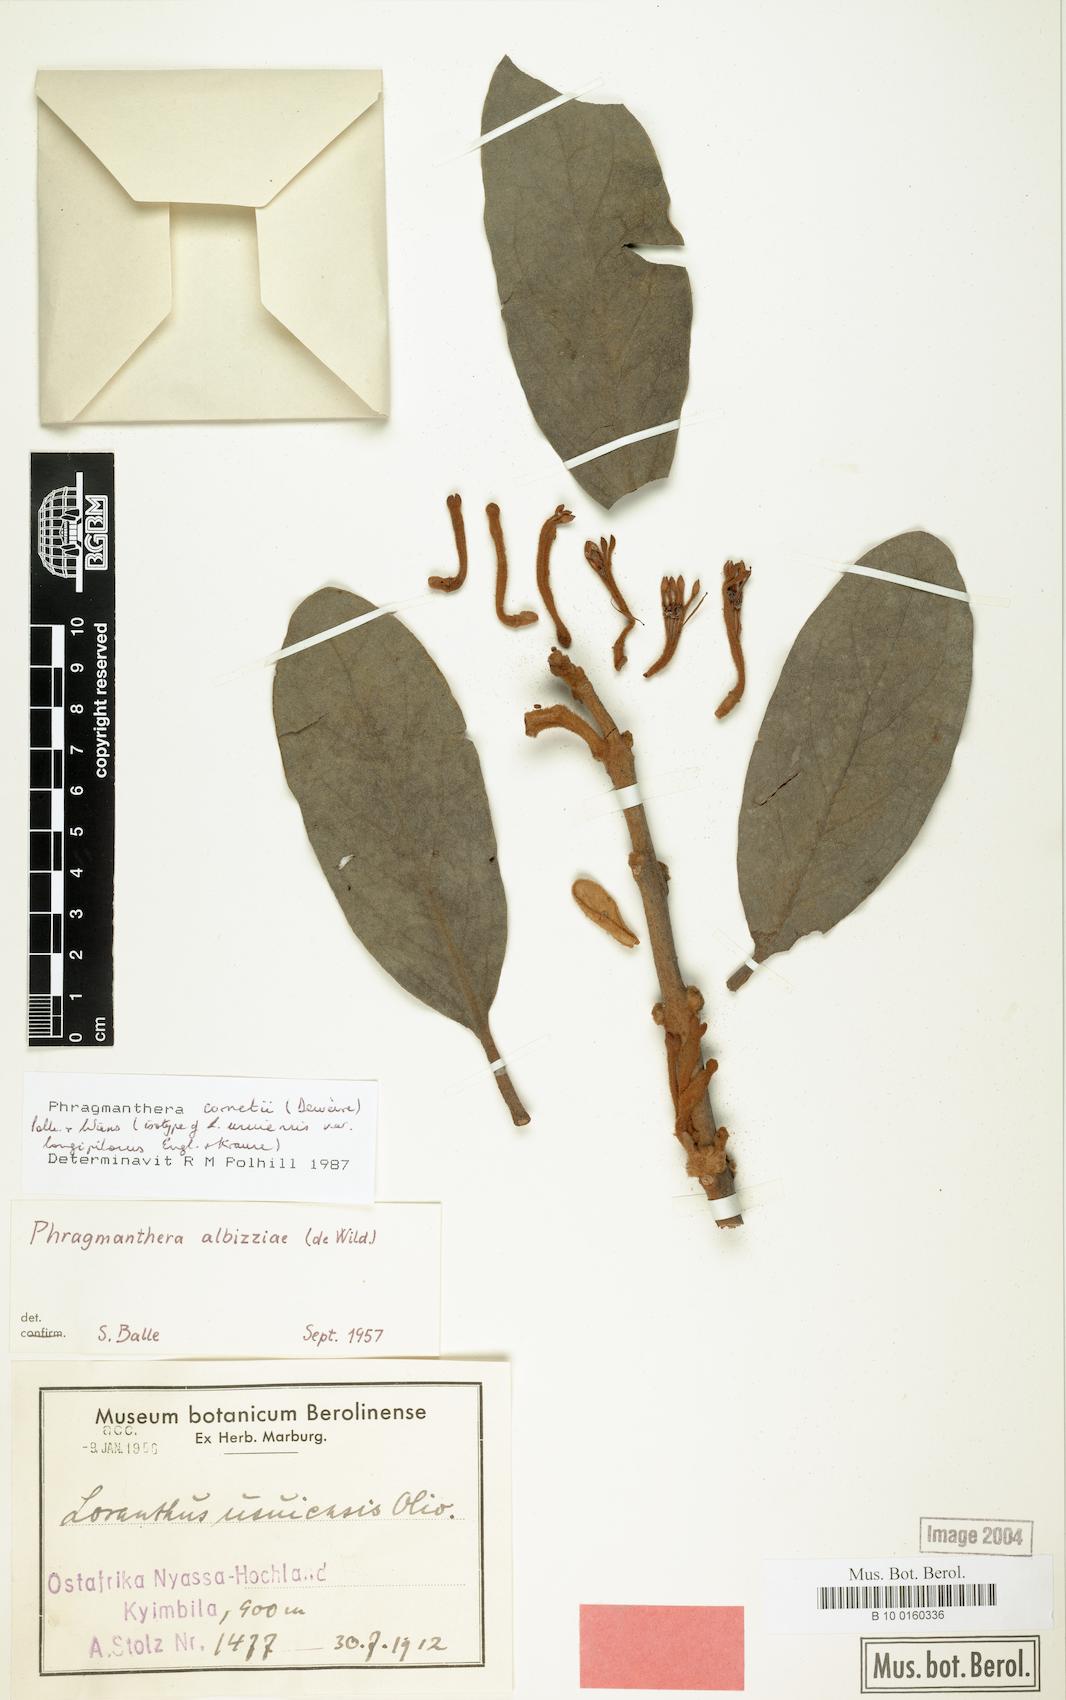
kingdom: Plantae
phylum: Tracheophyta
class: Magnoliopsida
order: Santalales
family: Loranthaceae
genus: Phragmanthera
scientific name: Phragmanthera cornetii
